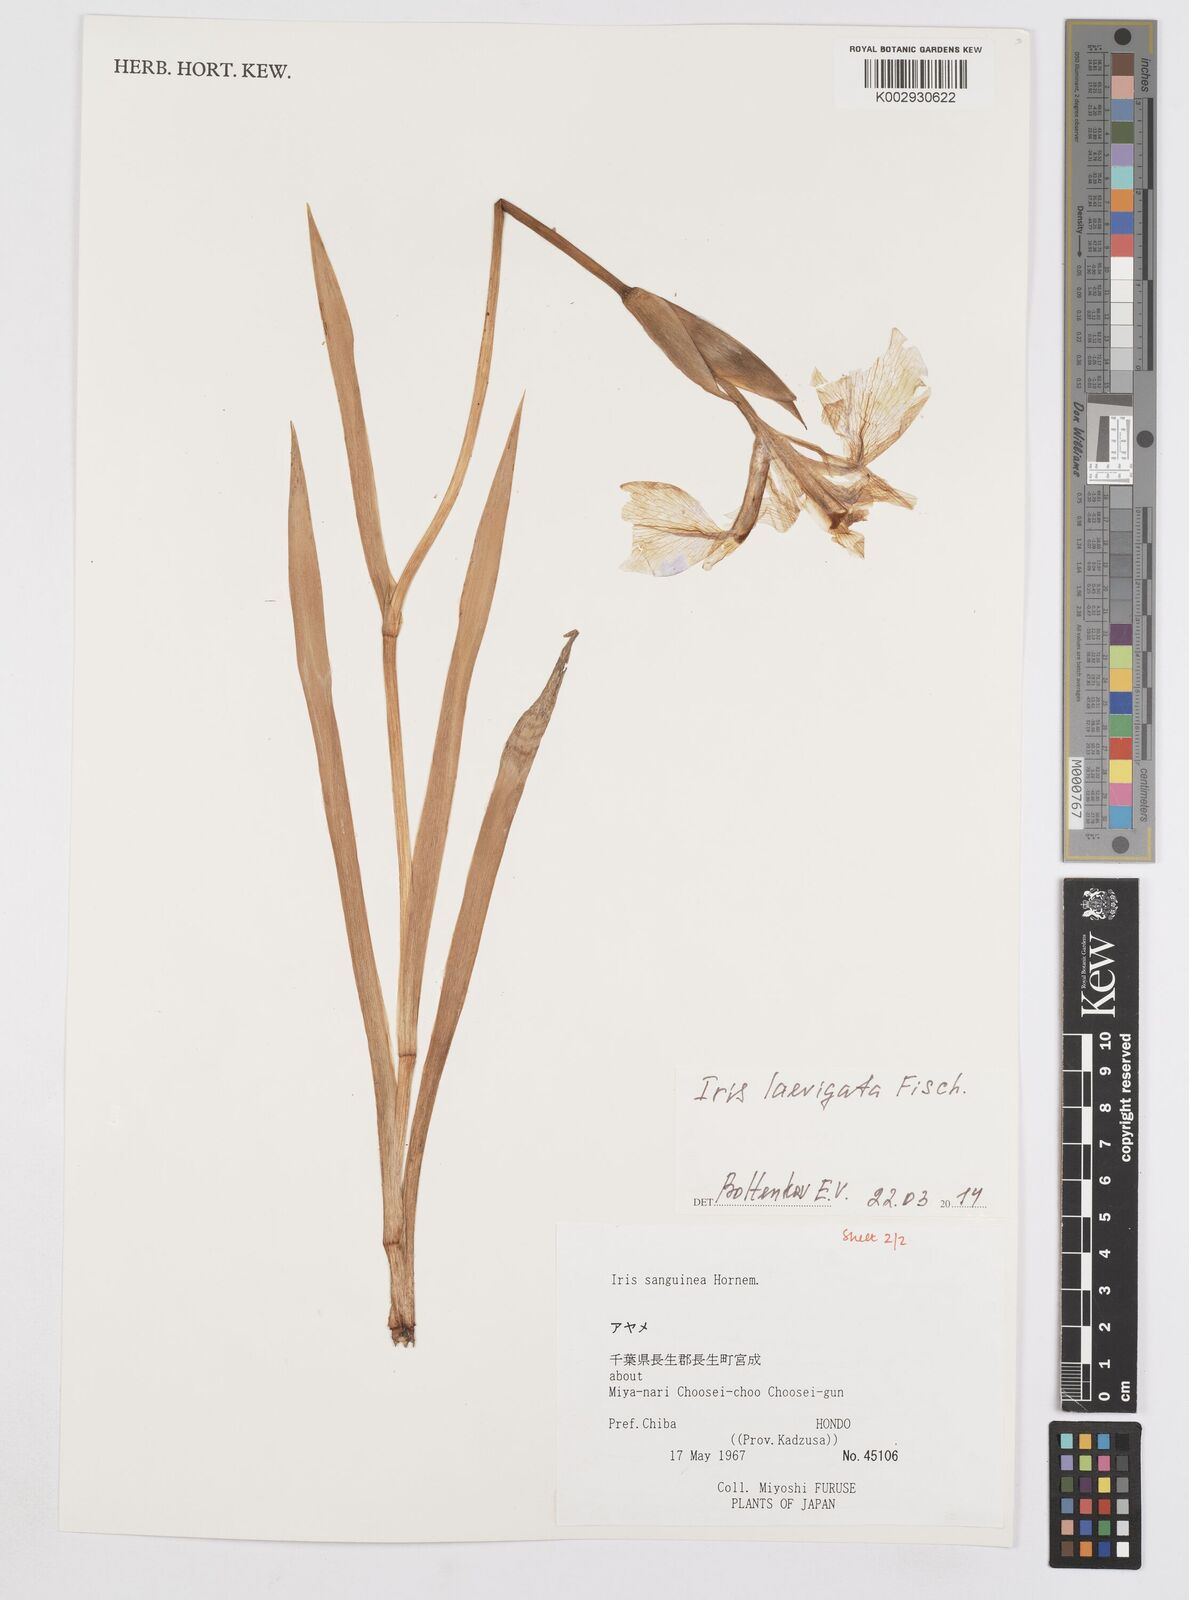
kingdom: Plantae
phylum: Tracheophyta
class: Liliopsida
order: Asparagales
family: Iridaceae
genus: Iris
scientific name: Iris laevigata
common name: Japanese iris
